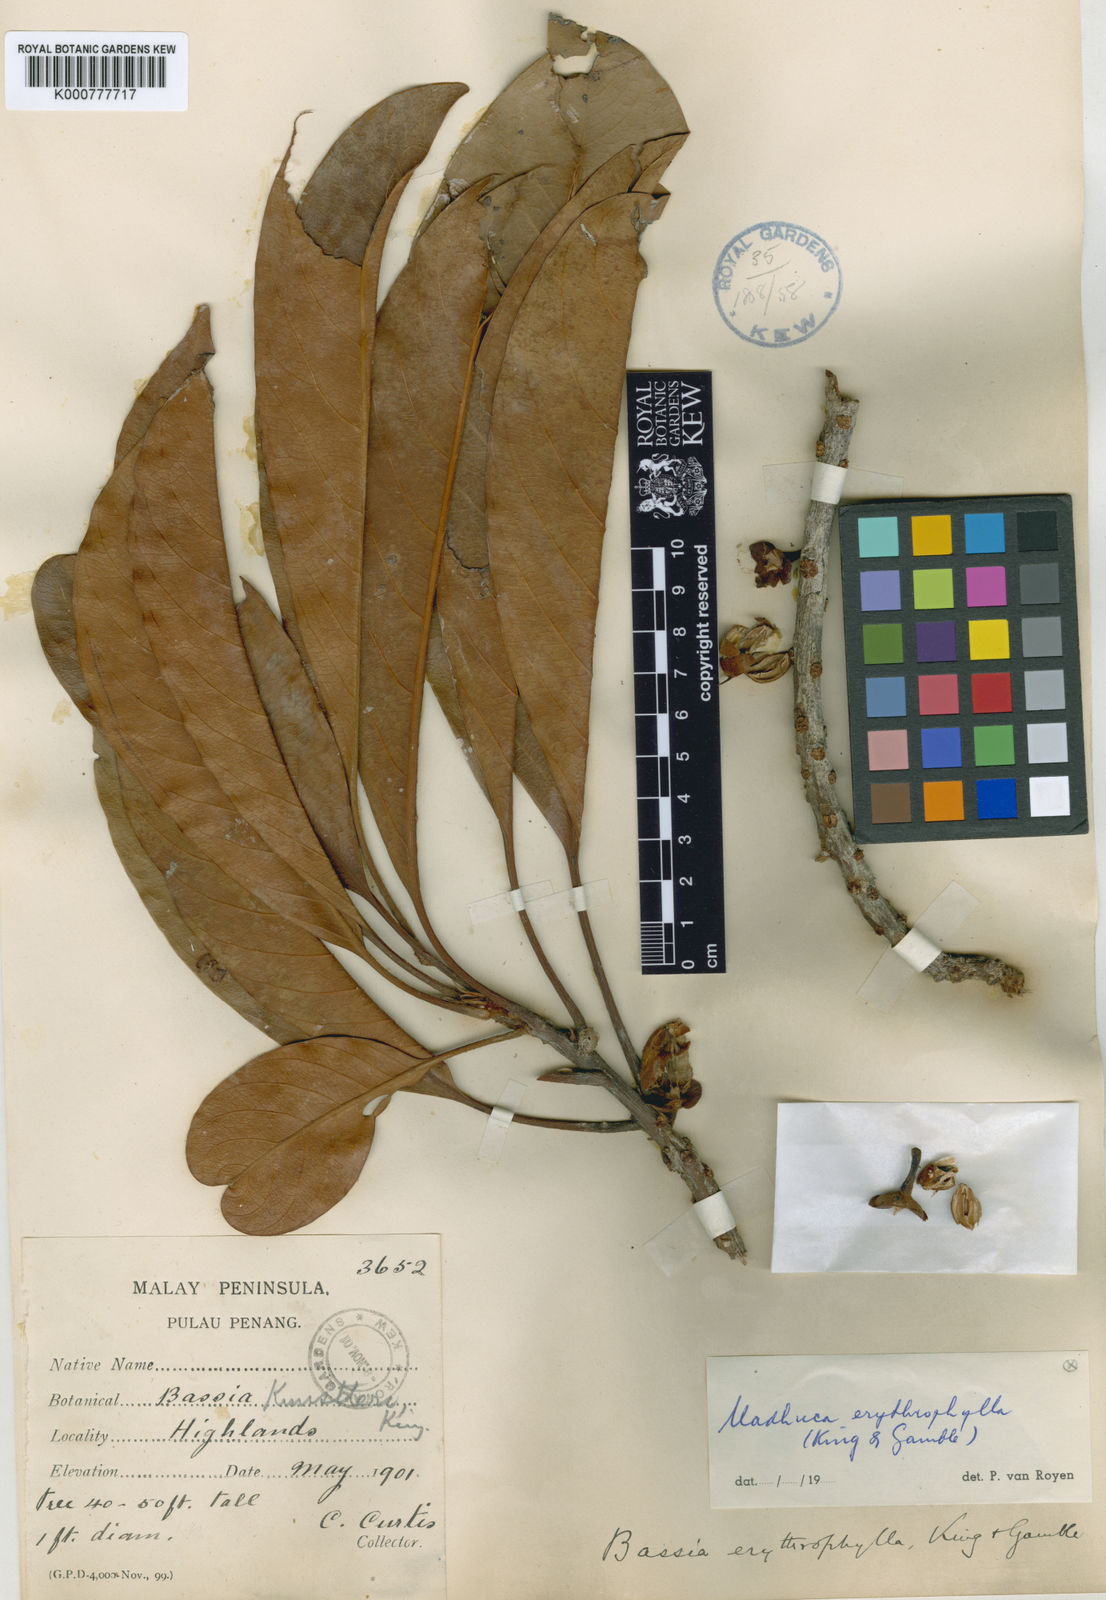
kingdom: Plantae
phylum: Tracheophyta
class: Magnoliopsida
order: Ericales
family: Sapotaceae
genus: Madhuca
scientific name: Madhuca erythrophylla
